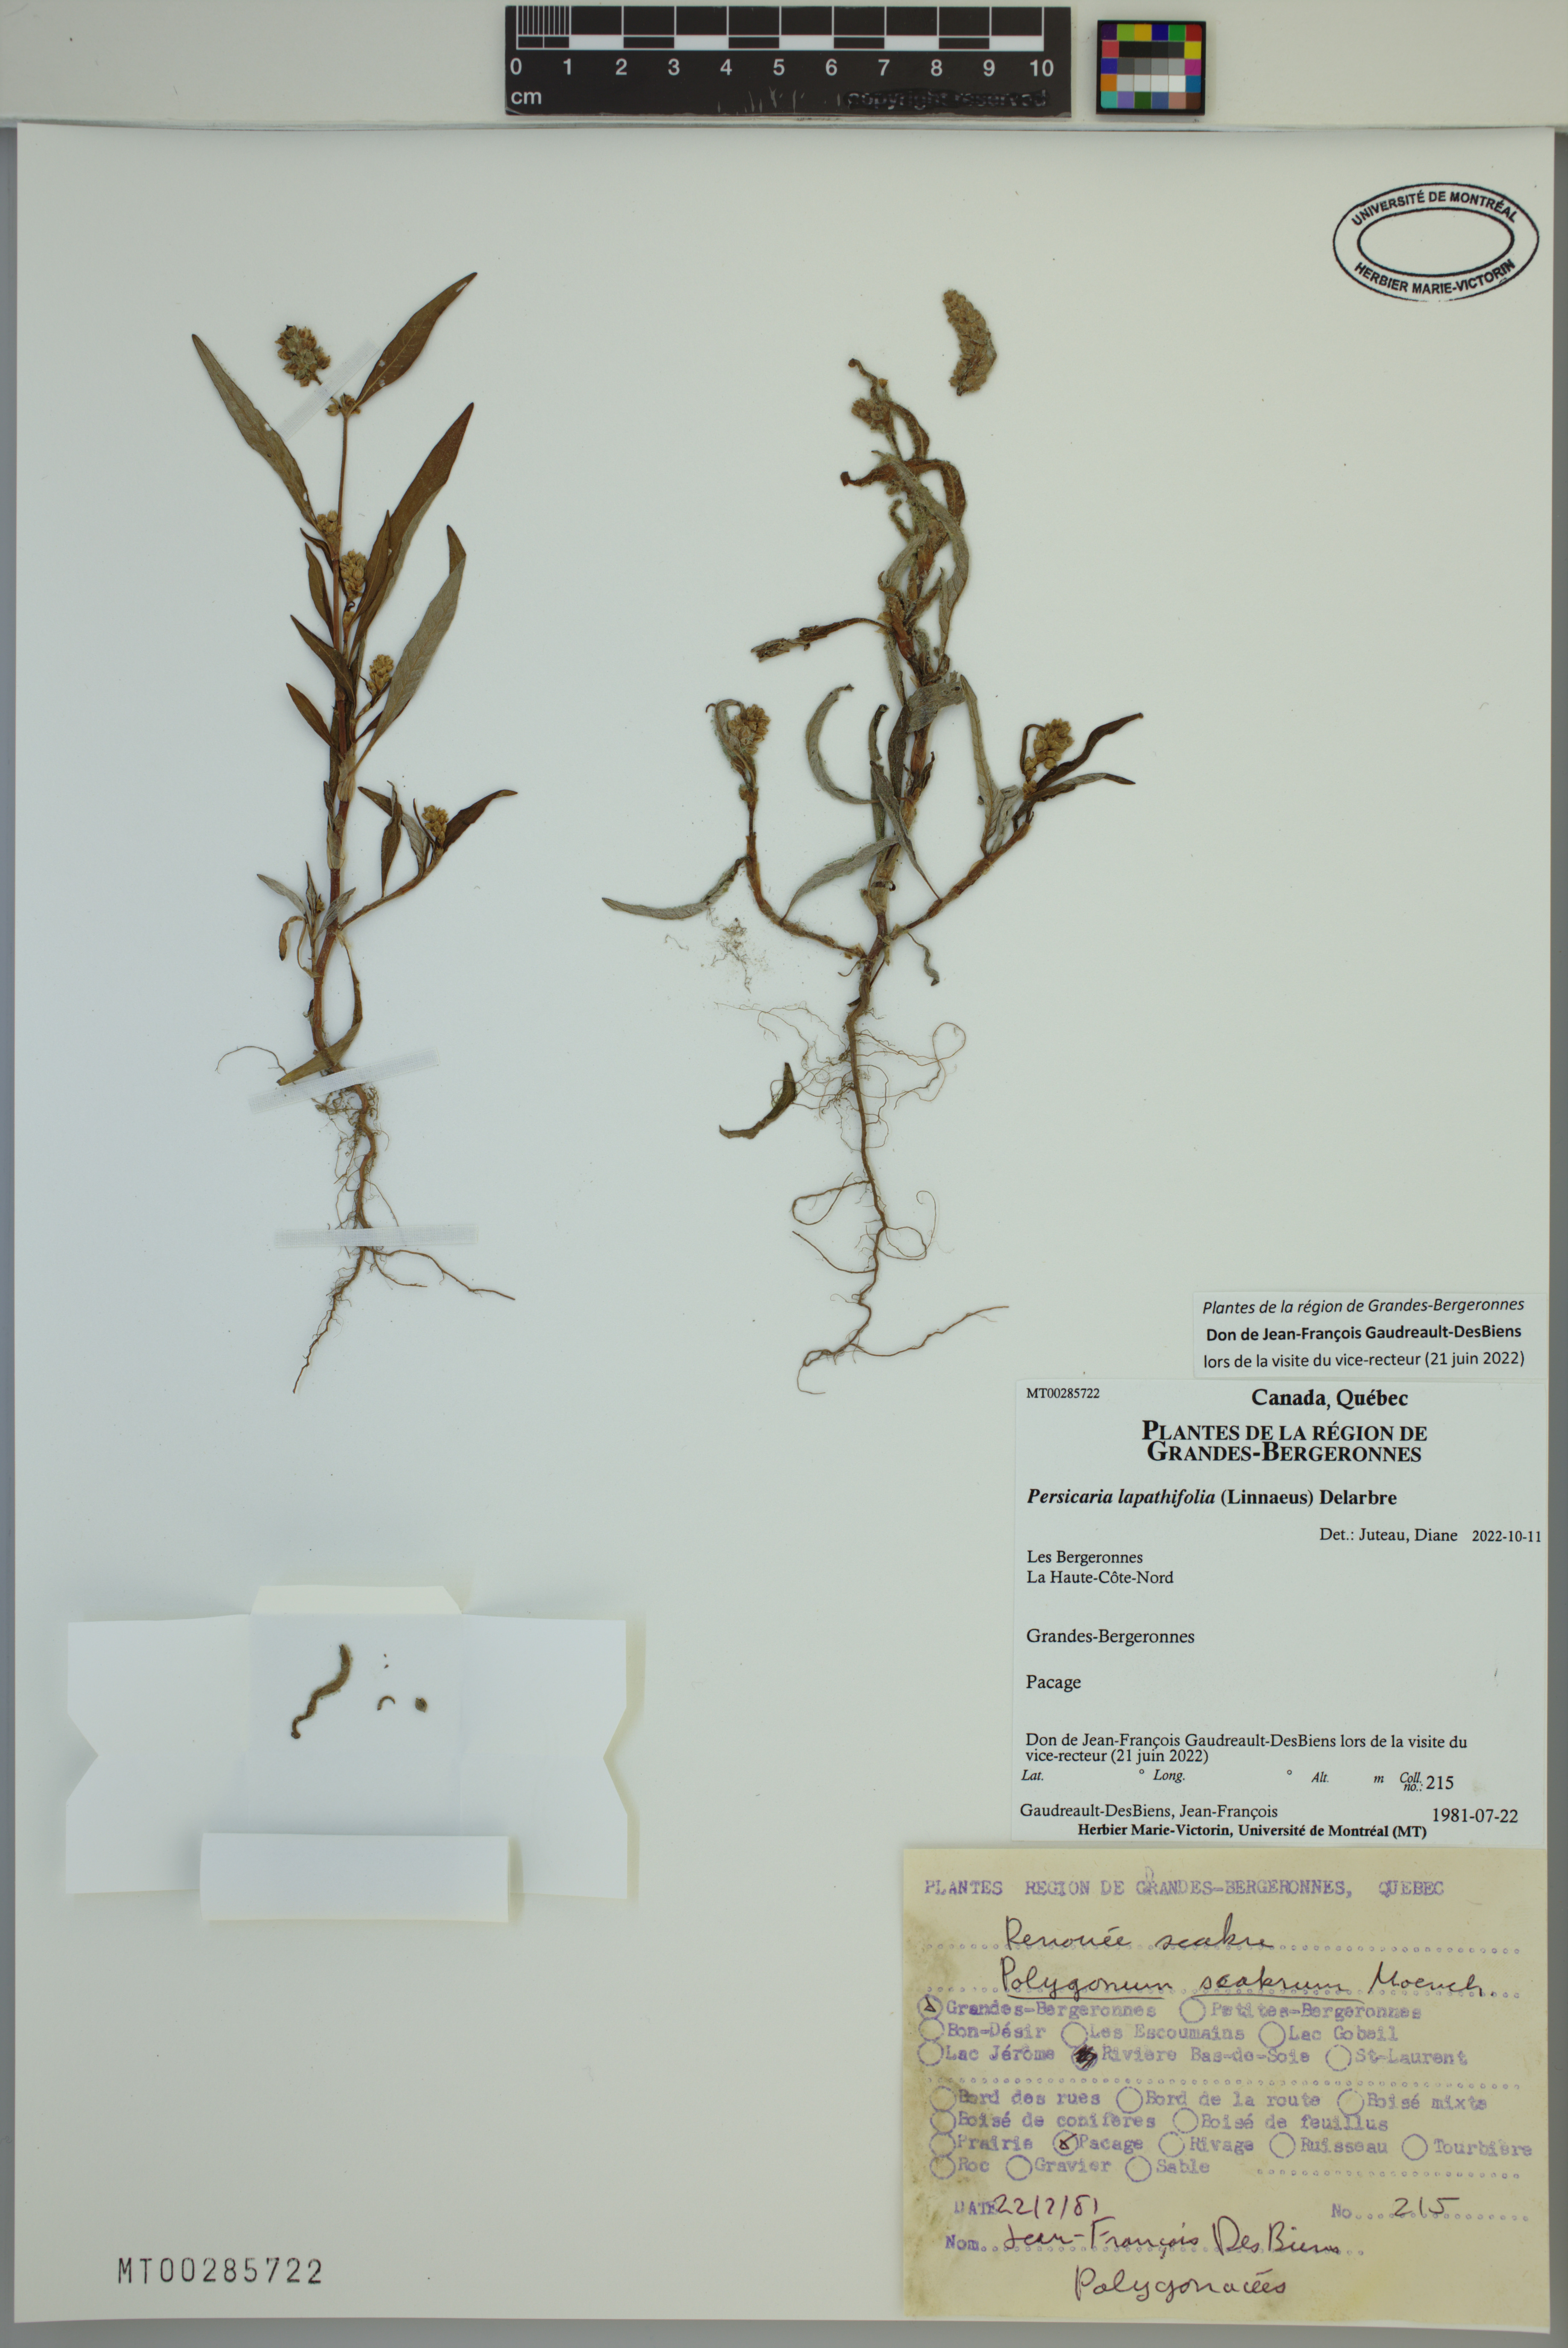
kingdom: Plantae
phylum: Tracheophyta
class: Magnoliopsida
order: Caryophyllales
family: Polygonaceae
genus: Persicaria
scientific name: Persicaria lapathifolia
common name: Curlytop knotweed
